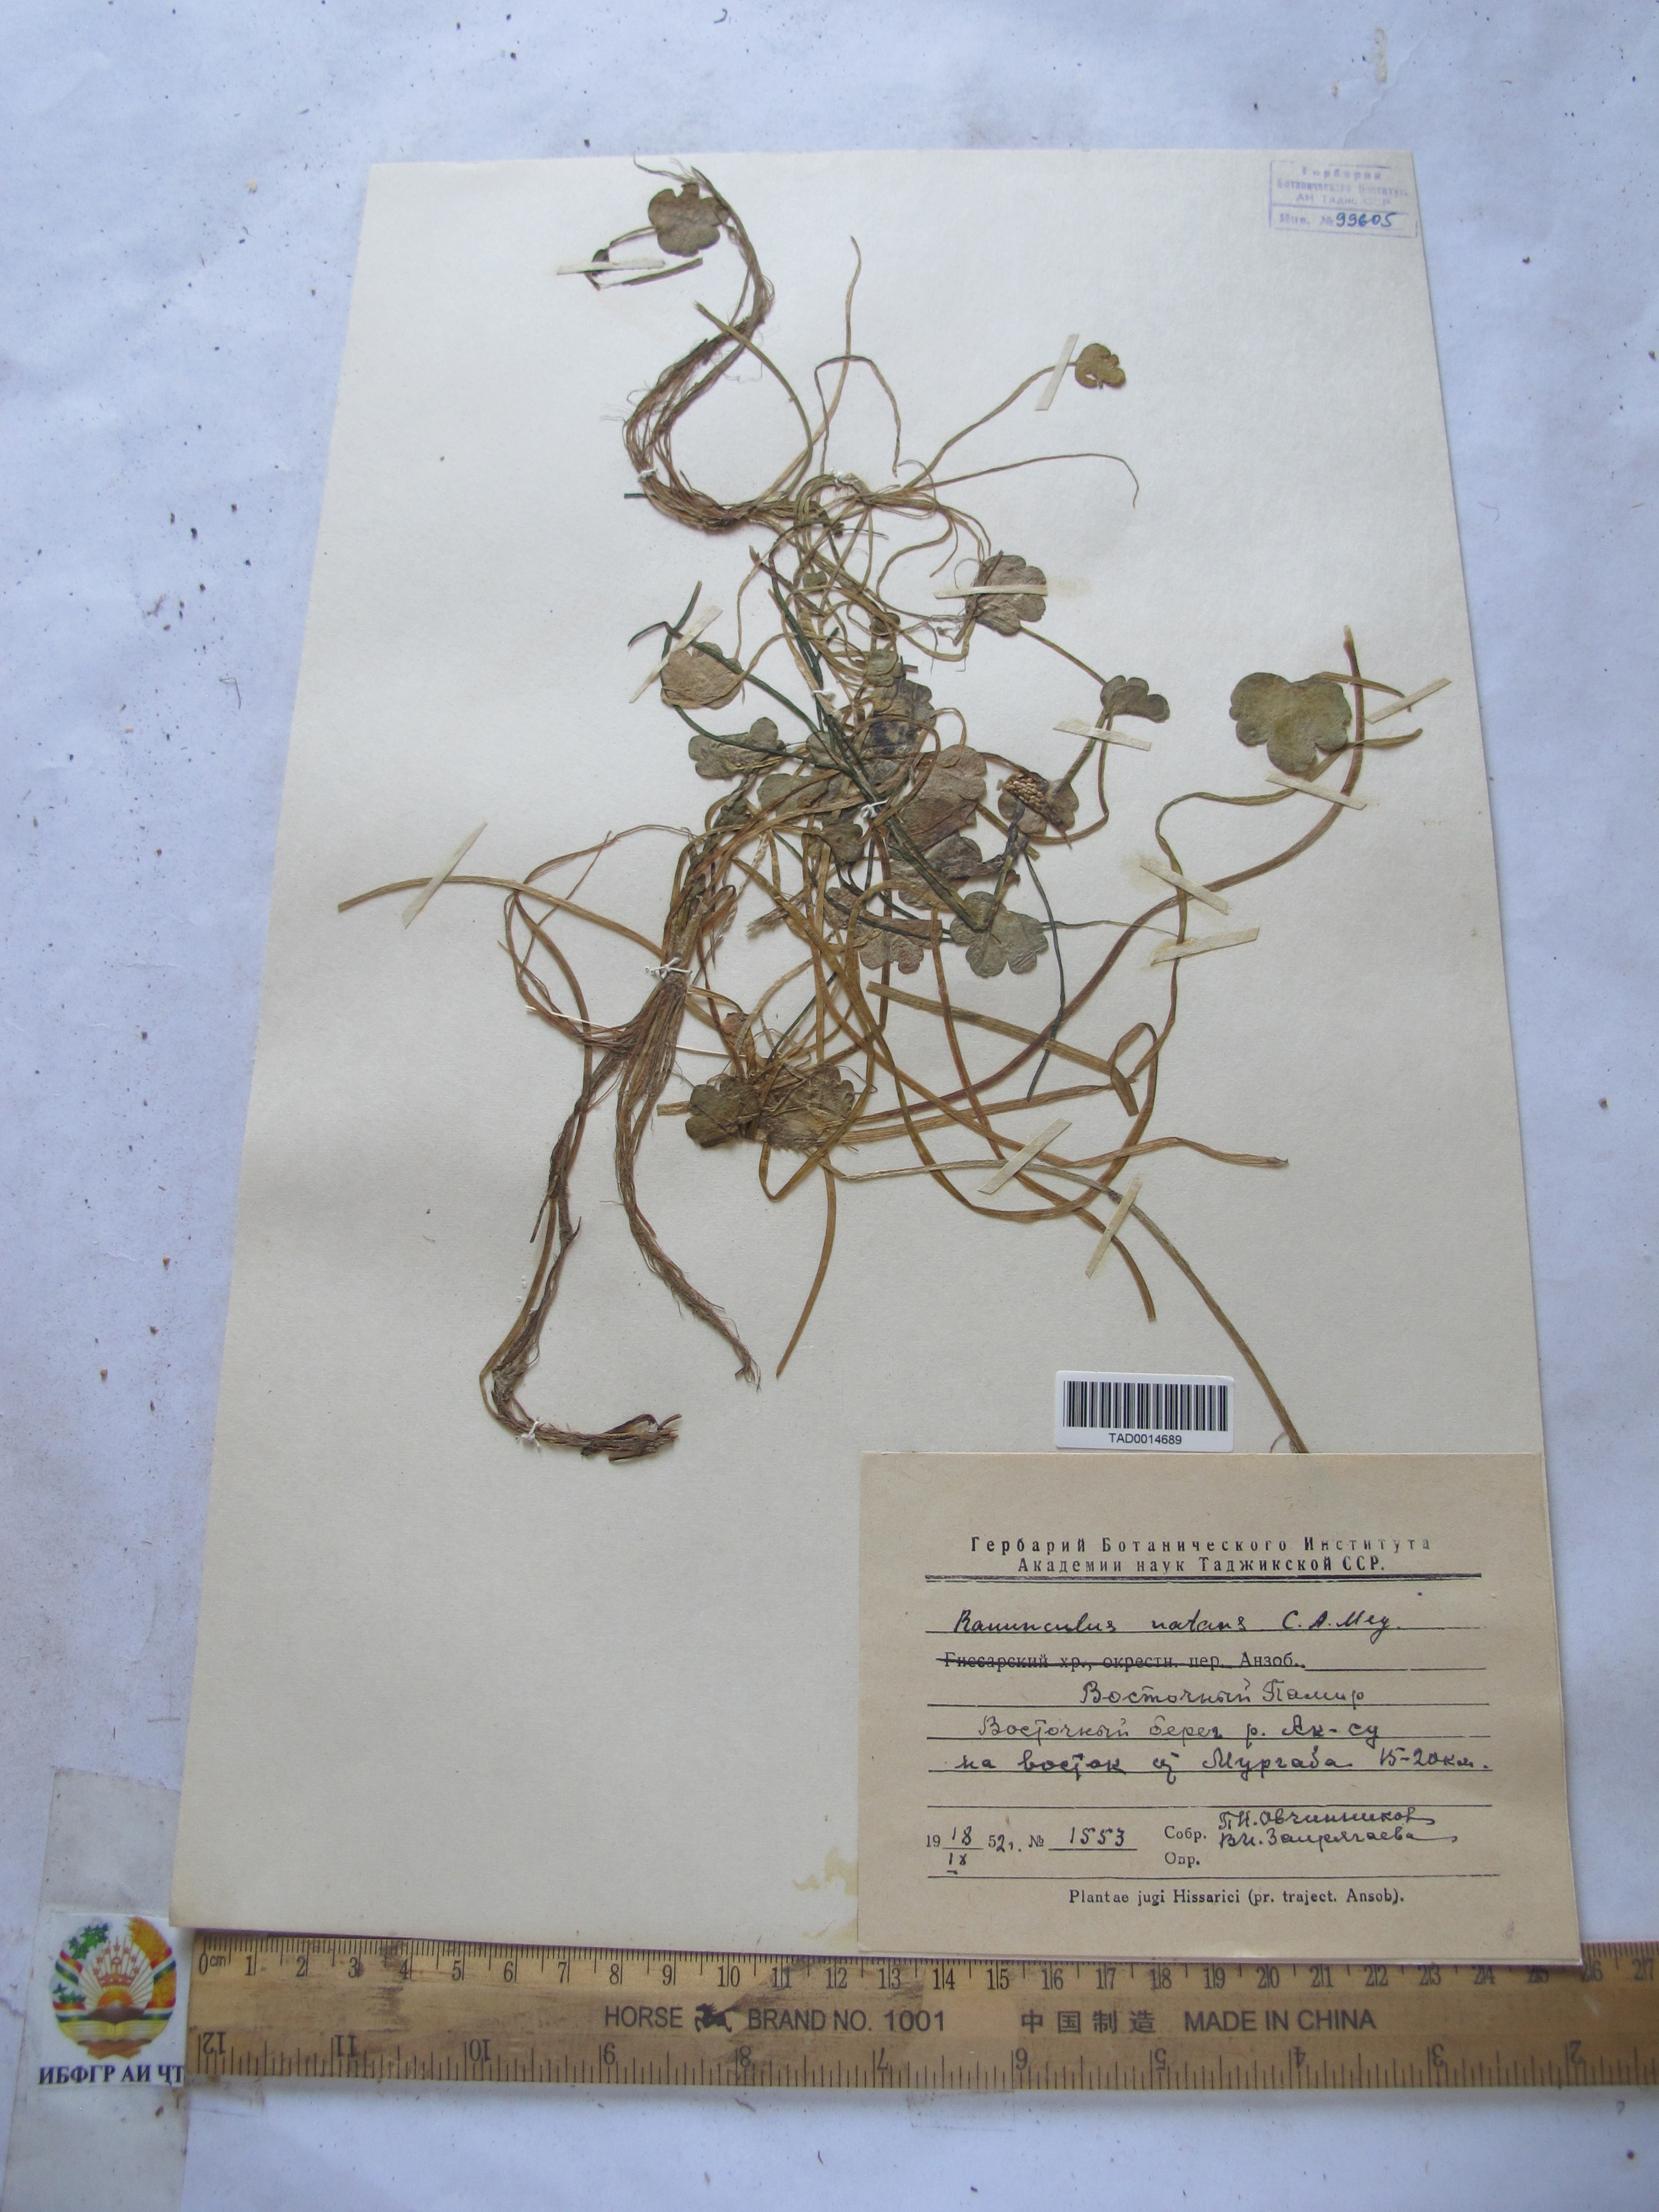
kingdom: Plantae
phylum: Tracheophyta
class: Magnoliopsida
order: Ranunculales
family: Ranunculaceae
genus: Ranunculus
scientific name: Ranunculus natans
